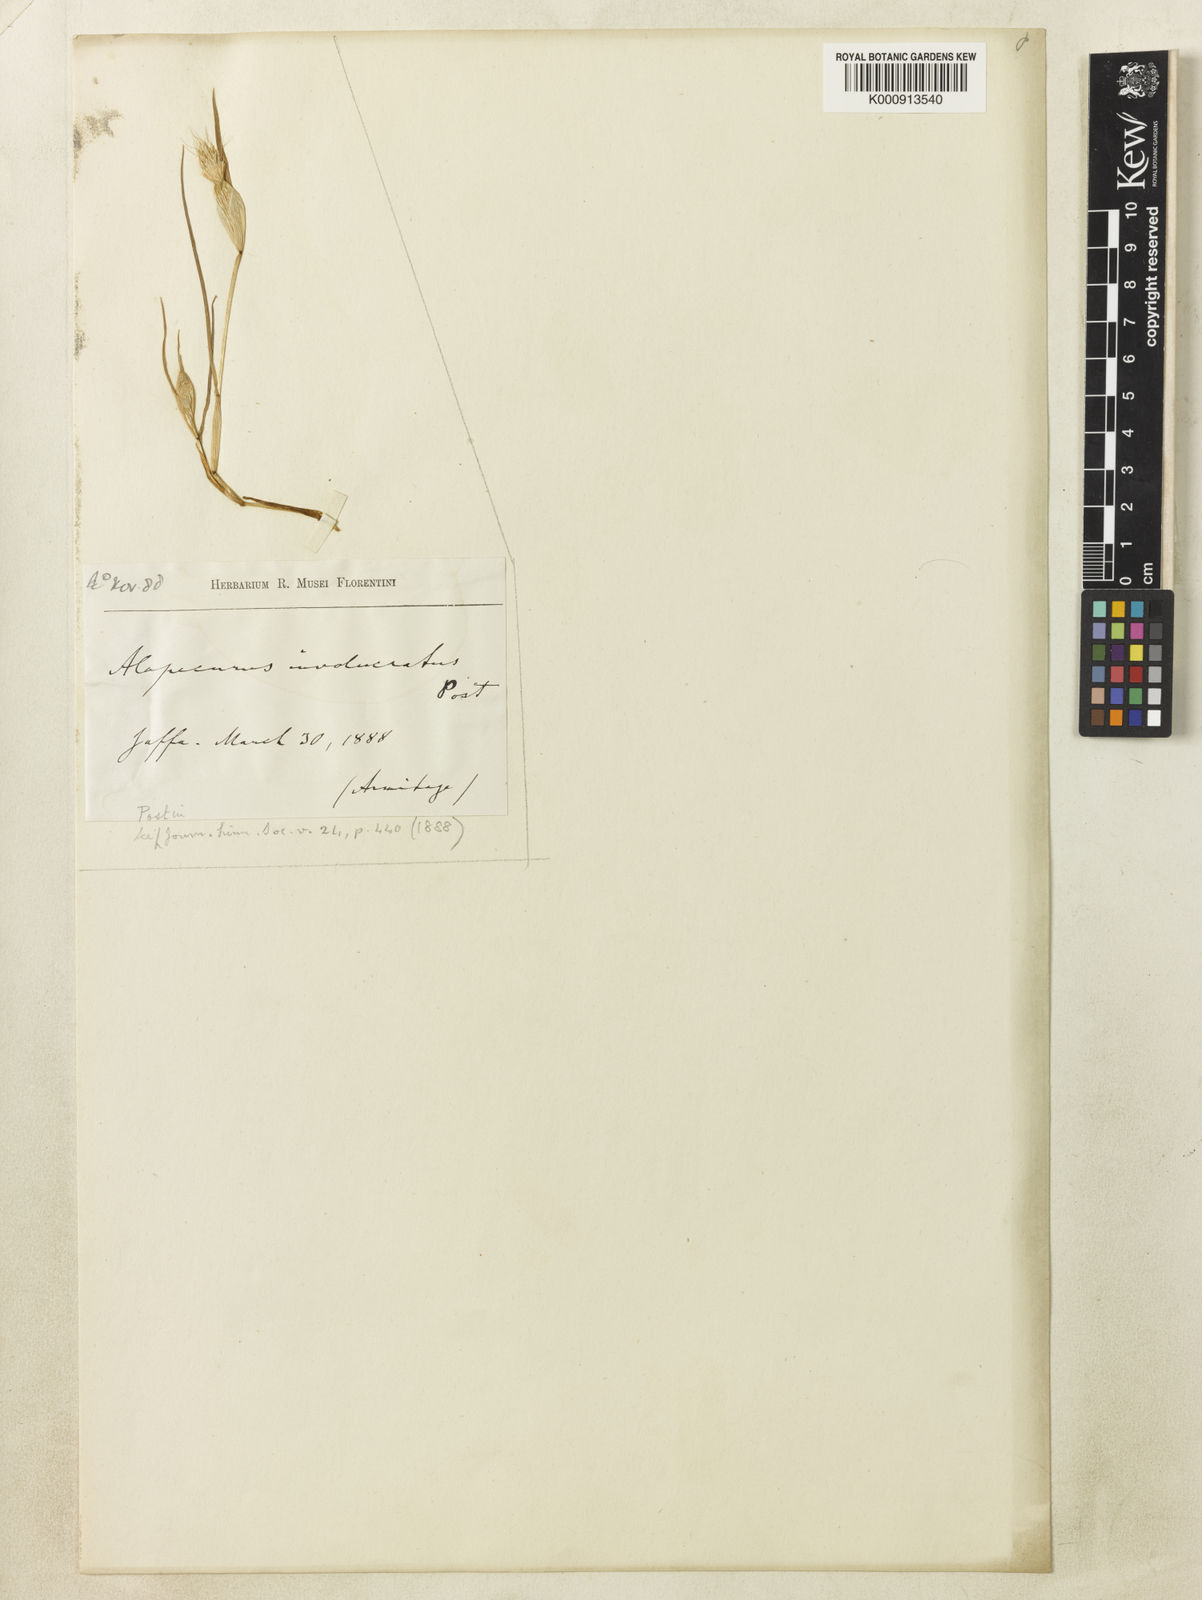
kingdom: Plantae
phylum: Tracheophyta
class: Liliopsida
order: Poales
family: Poaceae
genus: Cornucopiae
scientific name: Cornucopiae alopecuroides
